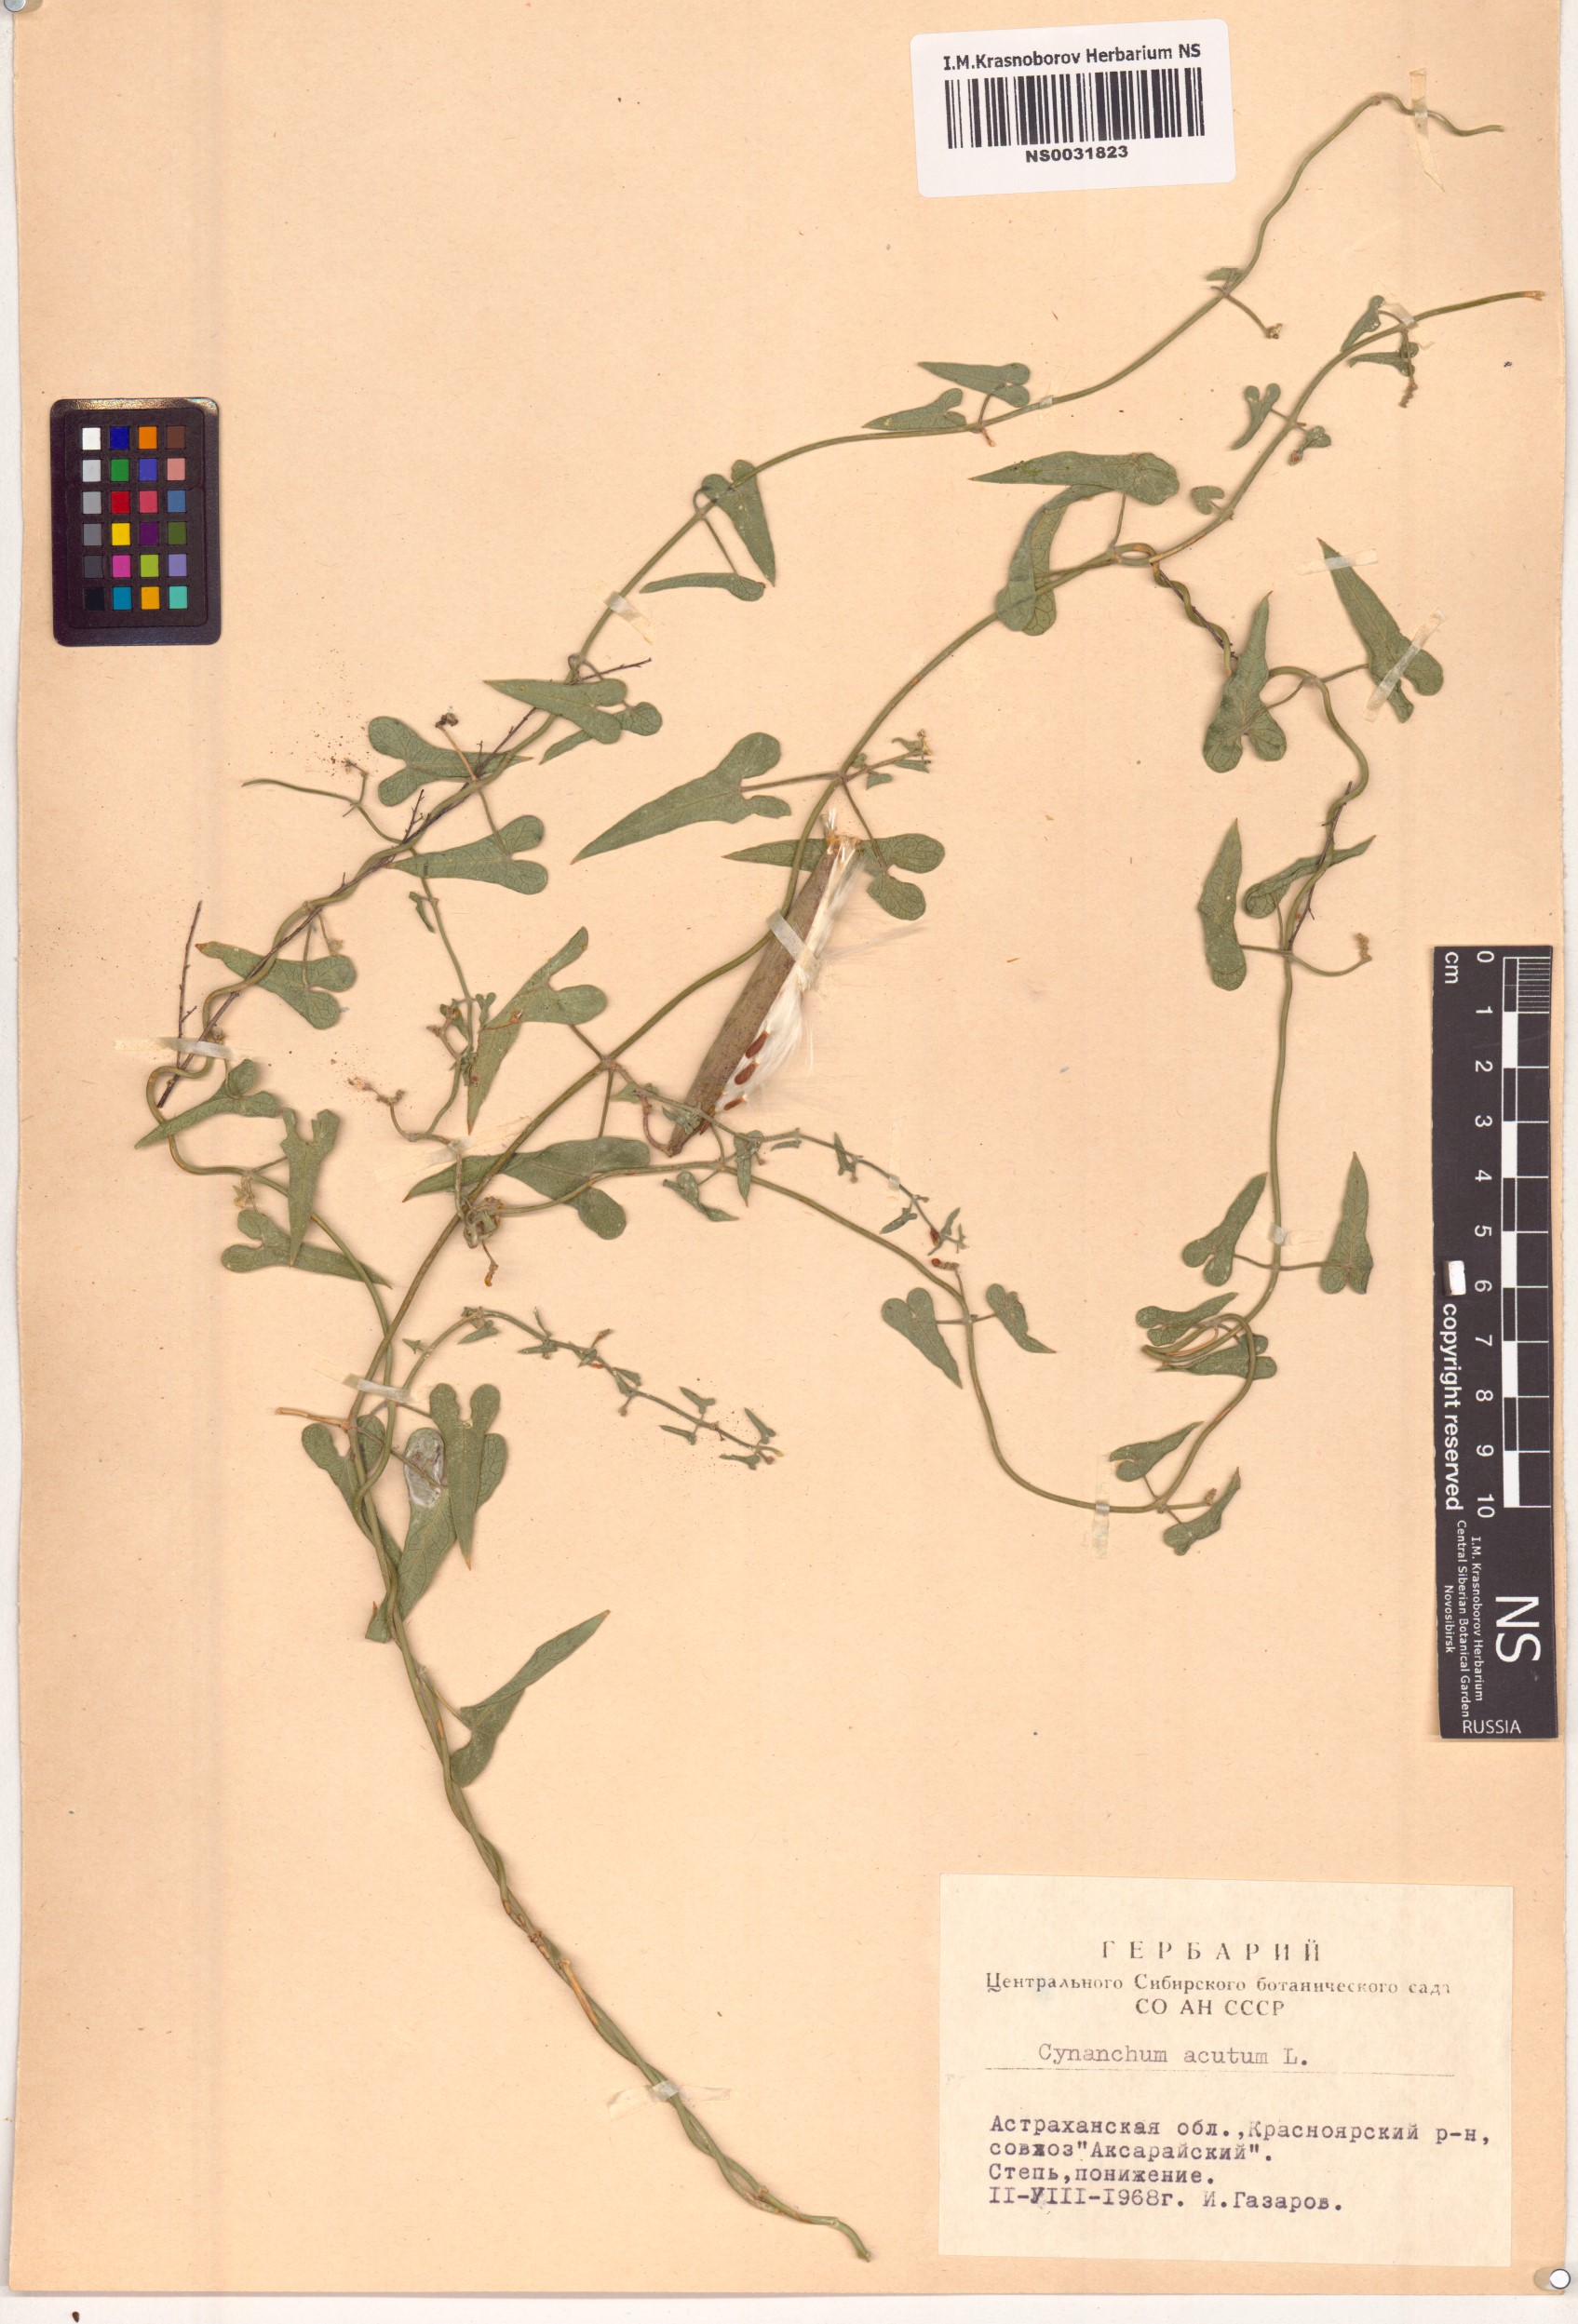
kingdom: Plantae
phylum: Tracheophyta
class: Magnoliopsida
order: Gentianales
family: Apocynaceae
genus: Cynanchum
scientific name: Cynanchum acutum
